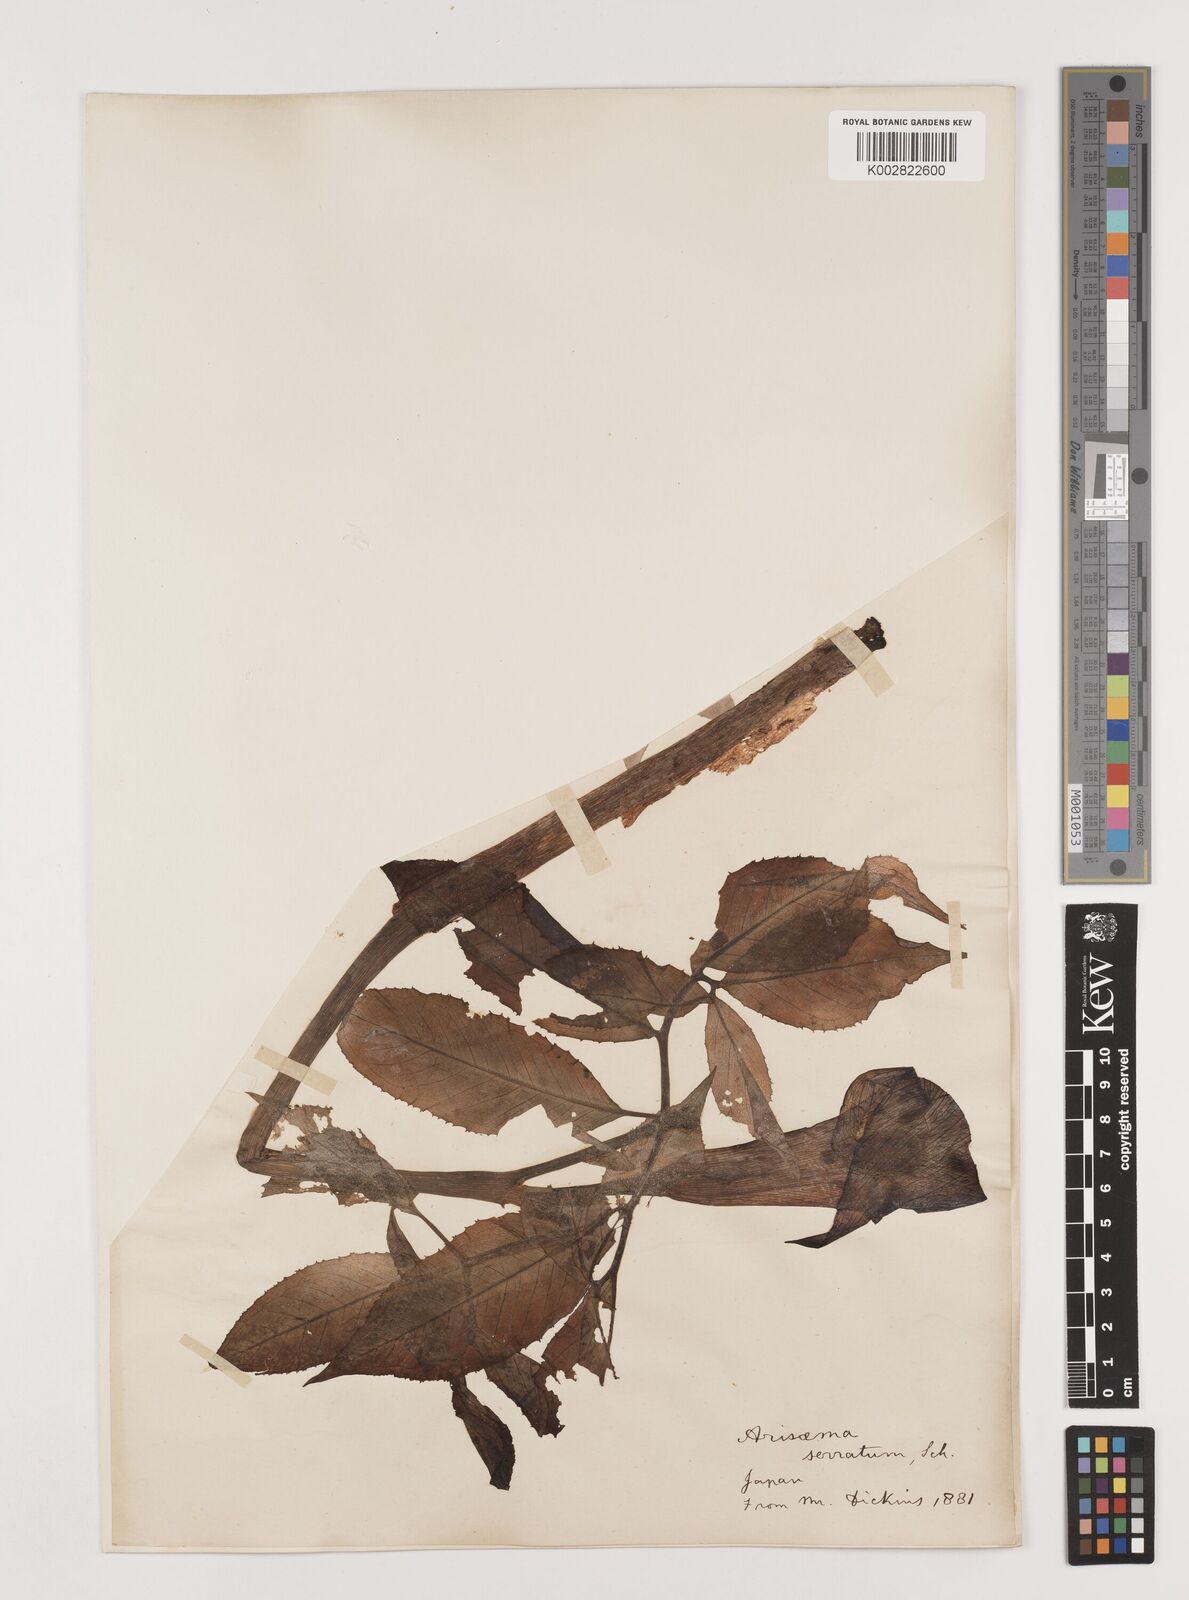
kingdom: Plantae
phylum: Tracheophyta
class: Liliopsida
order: Alismatales
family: Araceae
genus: Arisaema
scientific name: Arisaema serratum
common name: Japanese arisaema
